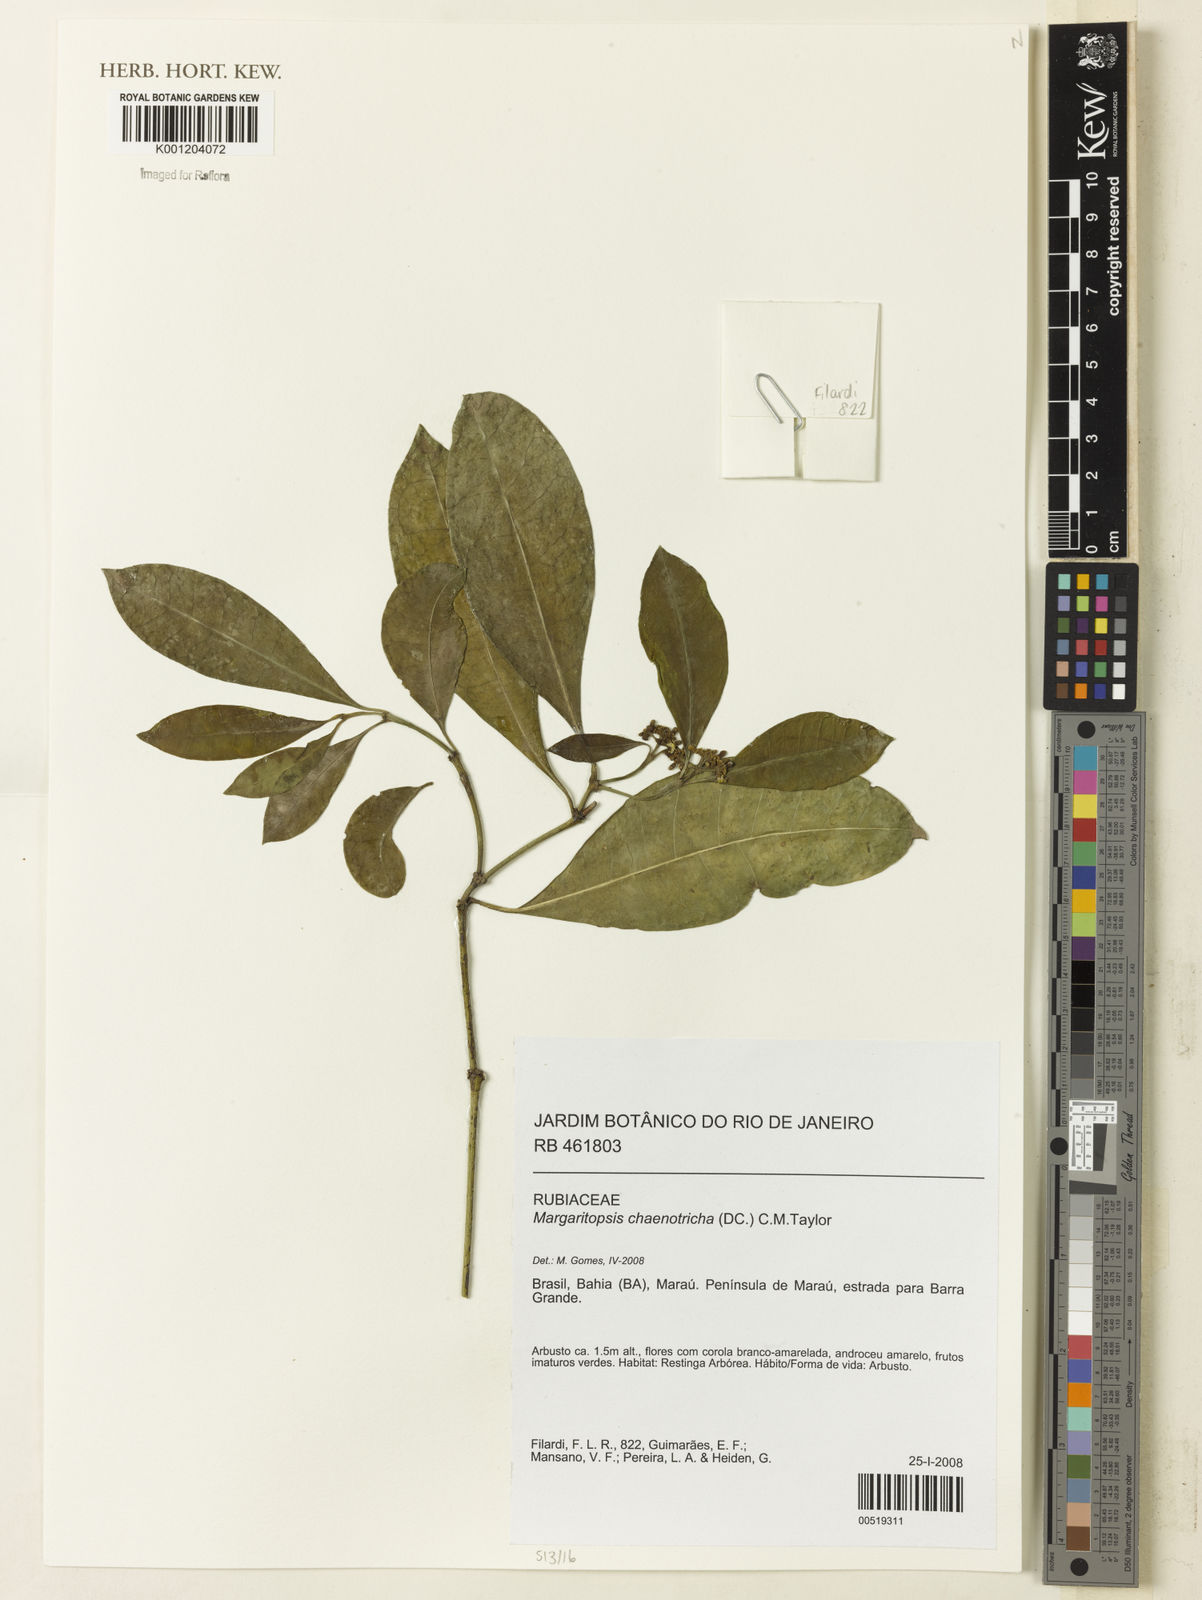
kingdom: Plantae
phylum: Tracheophyta
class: Magnoliopsida
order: Gentianales
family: Rubiaceae
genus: Eumachia
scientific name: Eumachia chaenotricha
